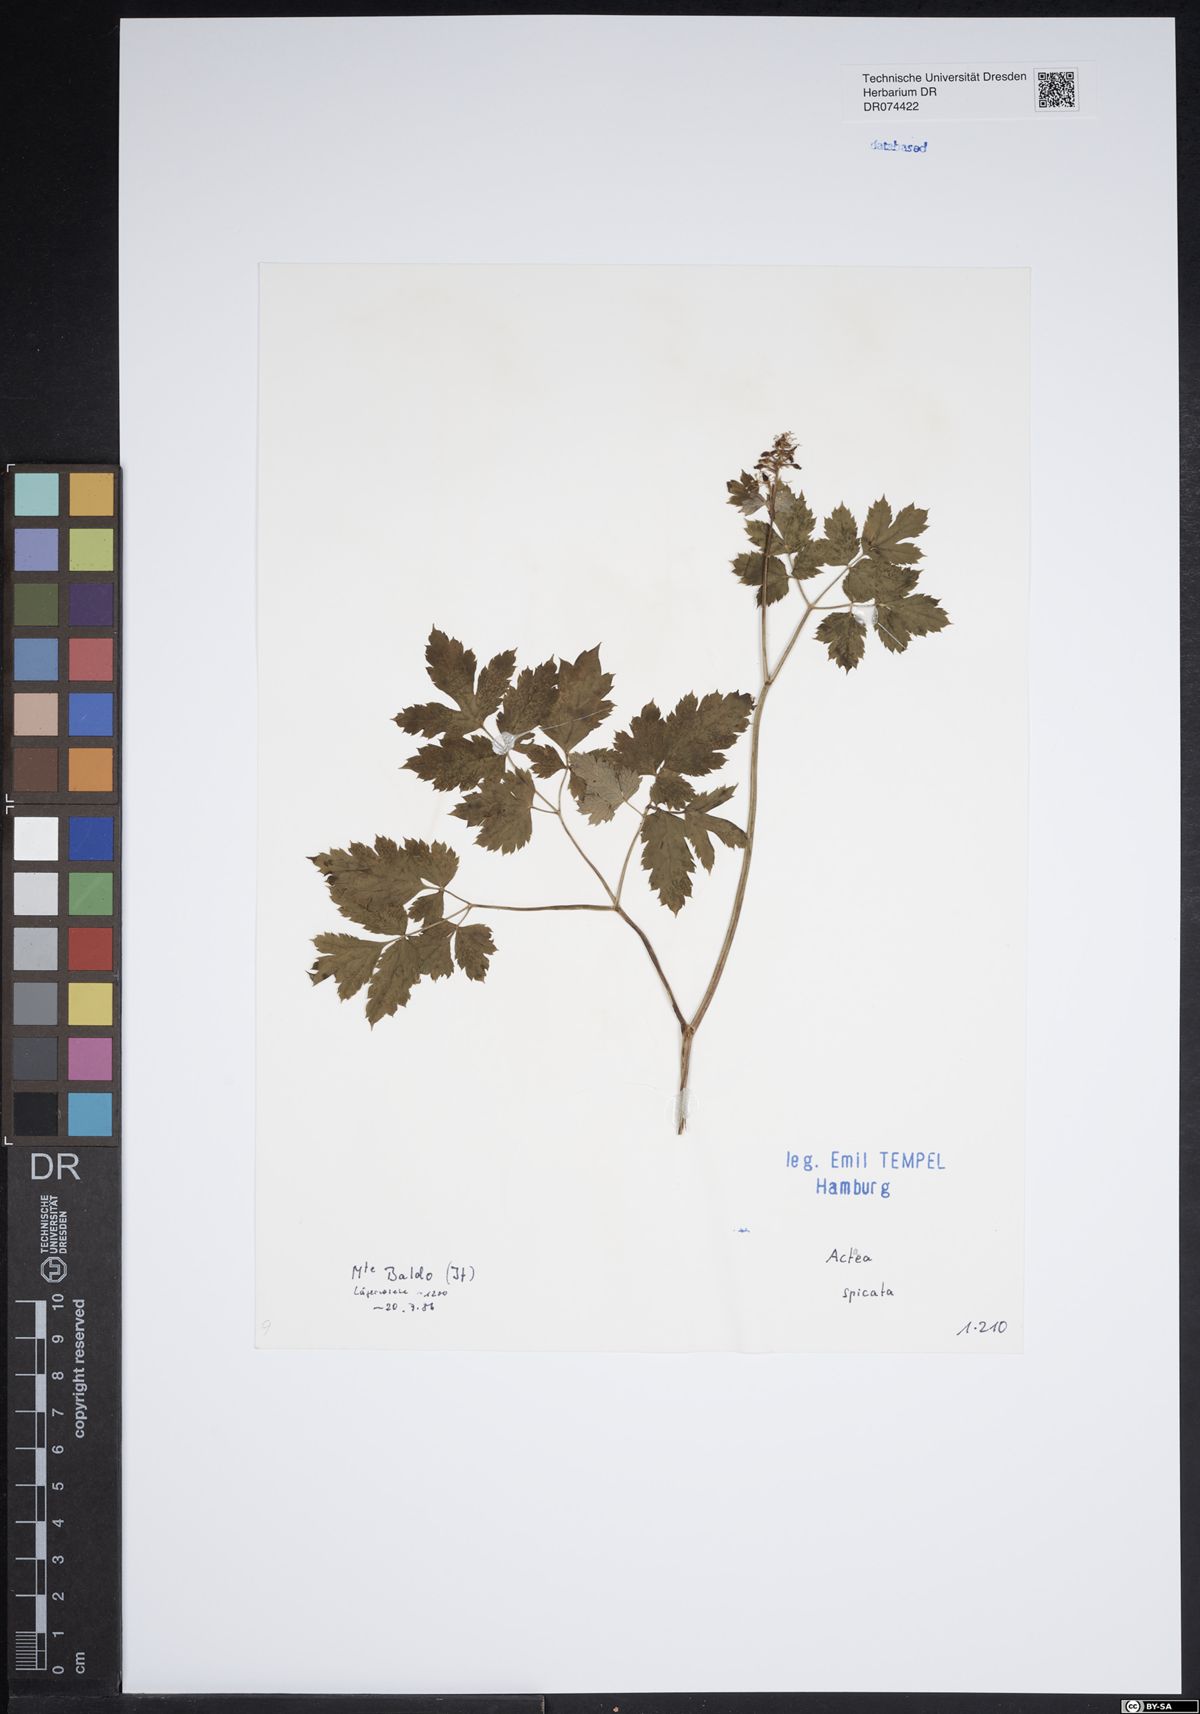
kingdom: Plantae
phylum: Tracheophyta
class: Magnoliopsida
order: Ranunculales
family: Ranunculaceae
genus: Actaea
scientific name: Actaea spicata
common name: Baneberry
